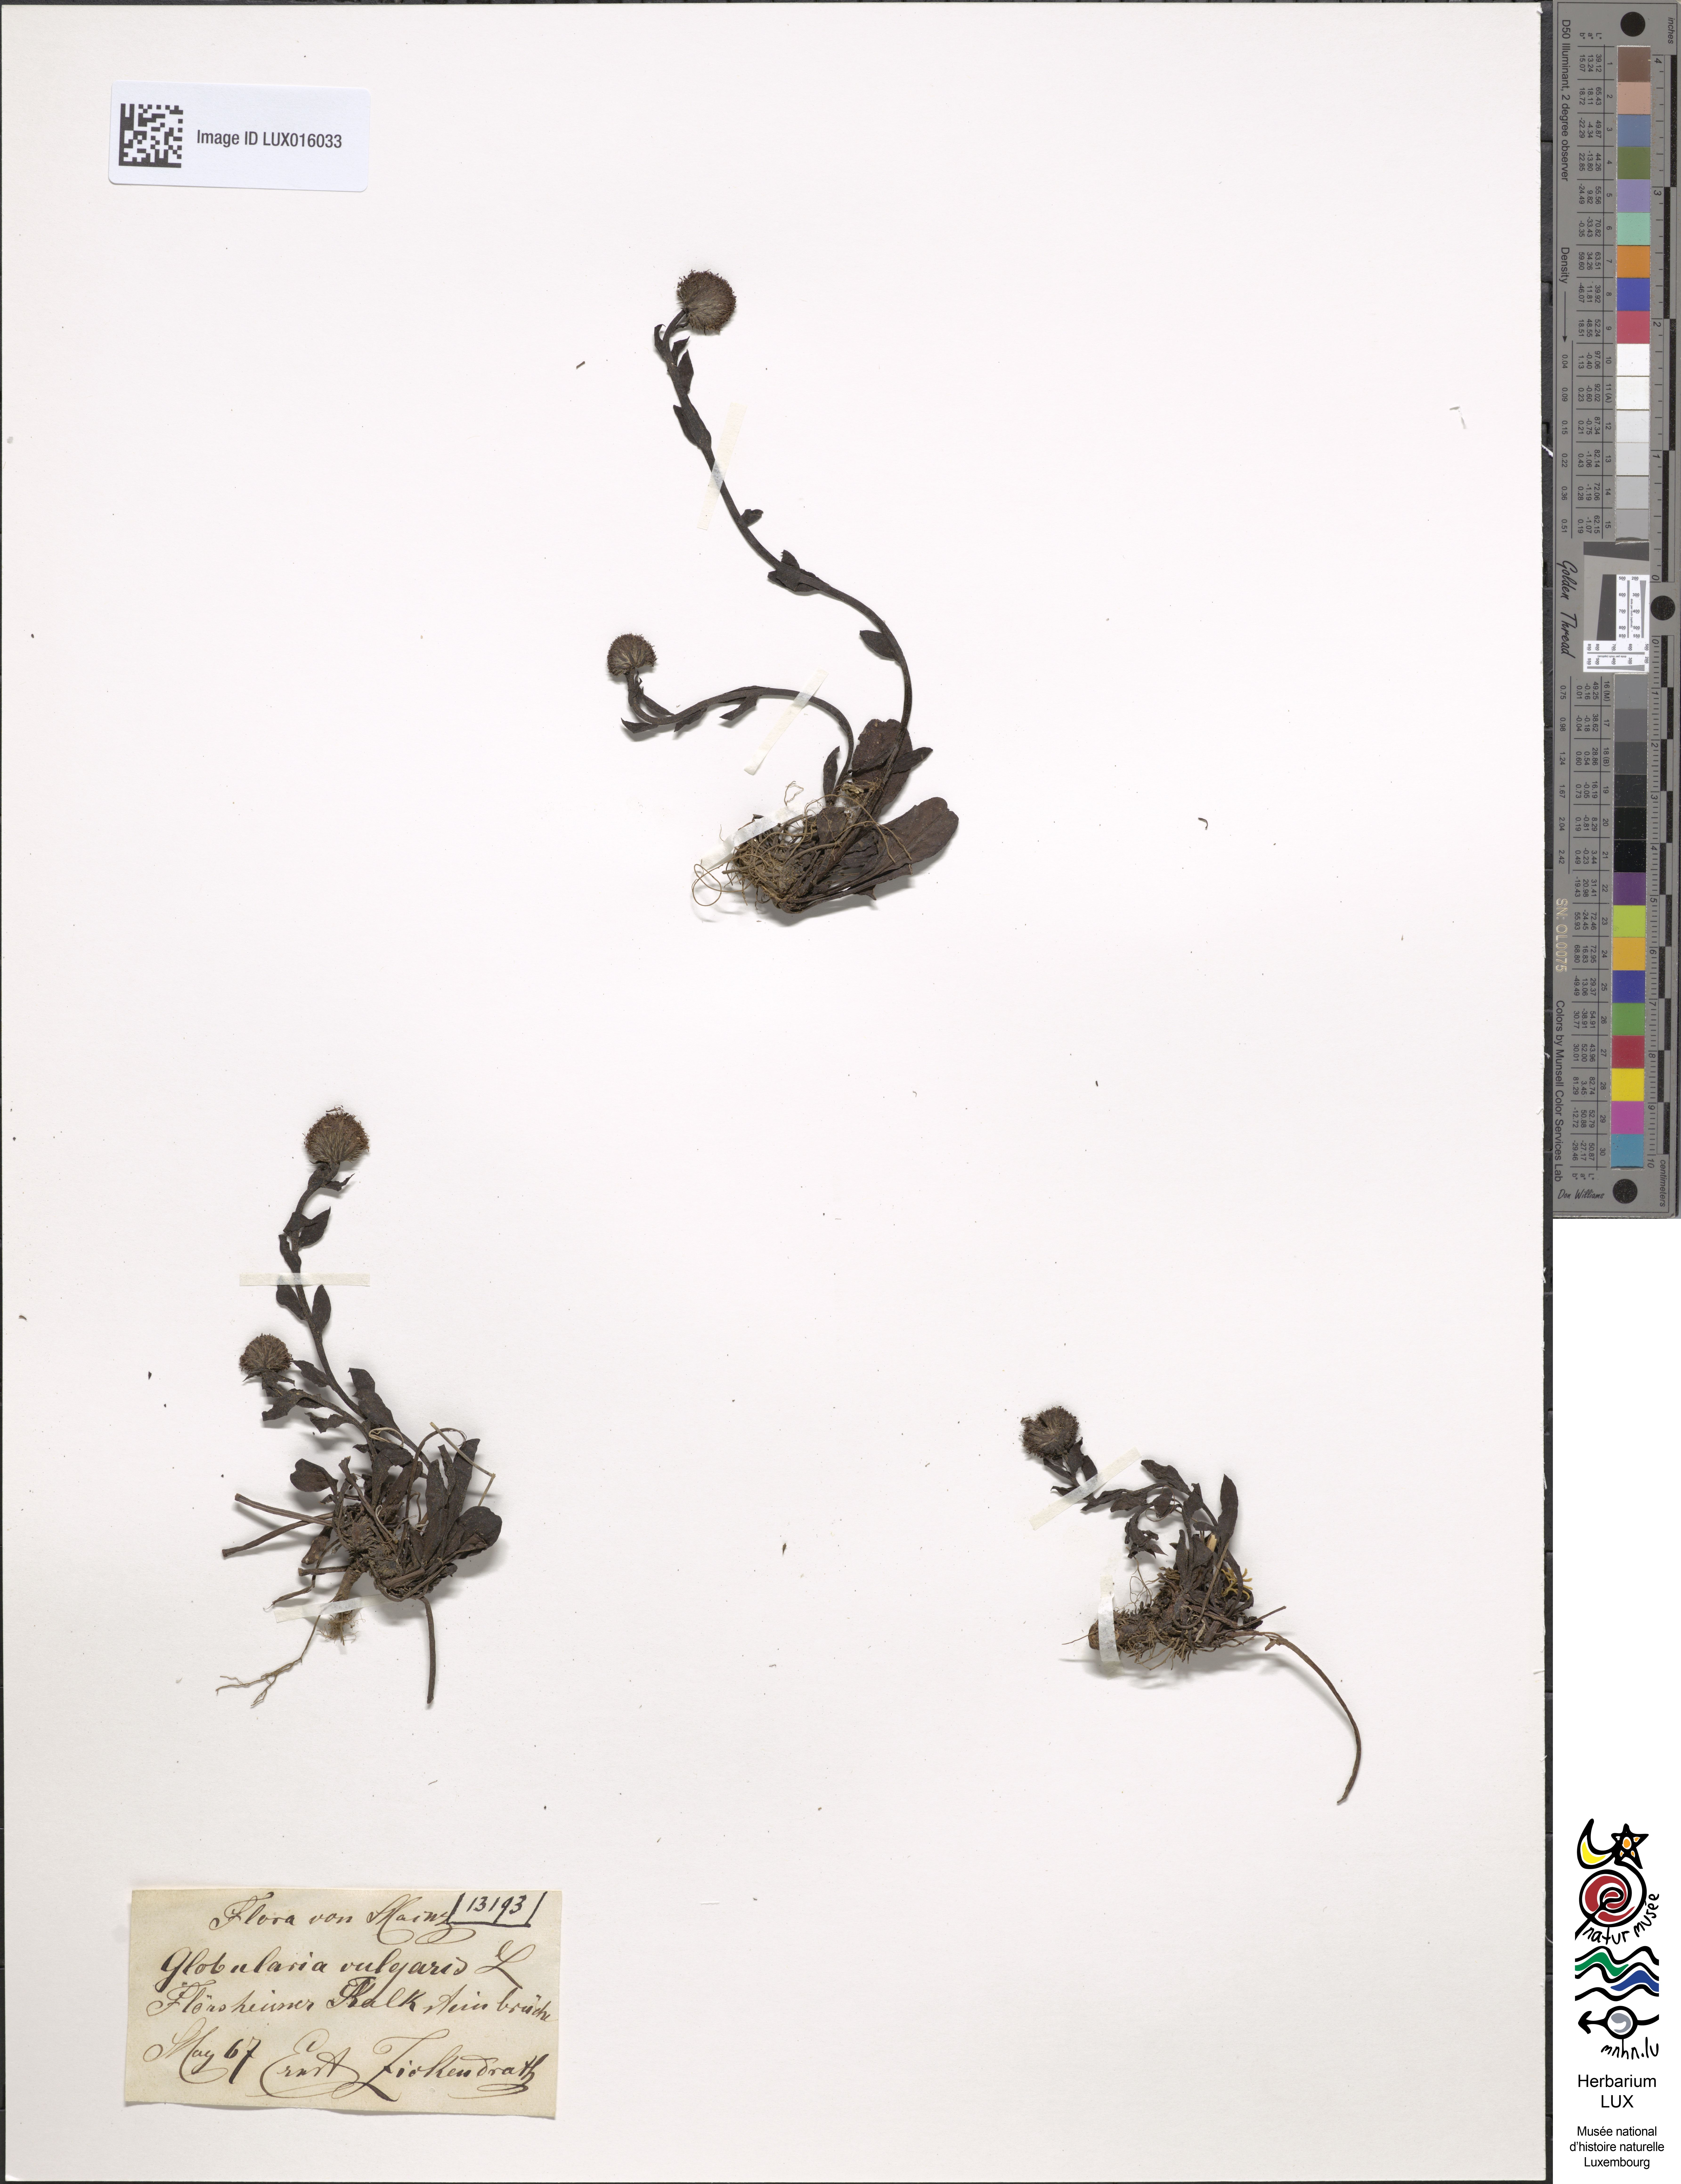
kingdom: Plantae
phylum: Tracheophyta
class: Magnoliopsida
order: Lamiales
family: Plantaginaceae
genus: Globularia
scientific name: Globularia bisnagarica
